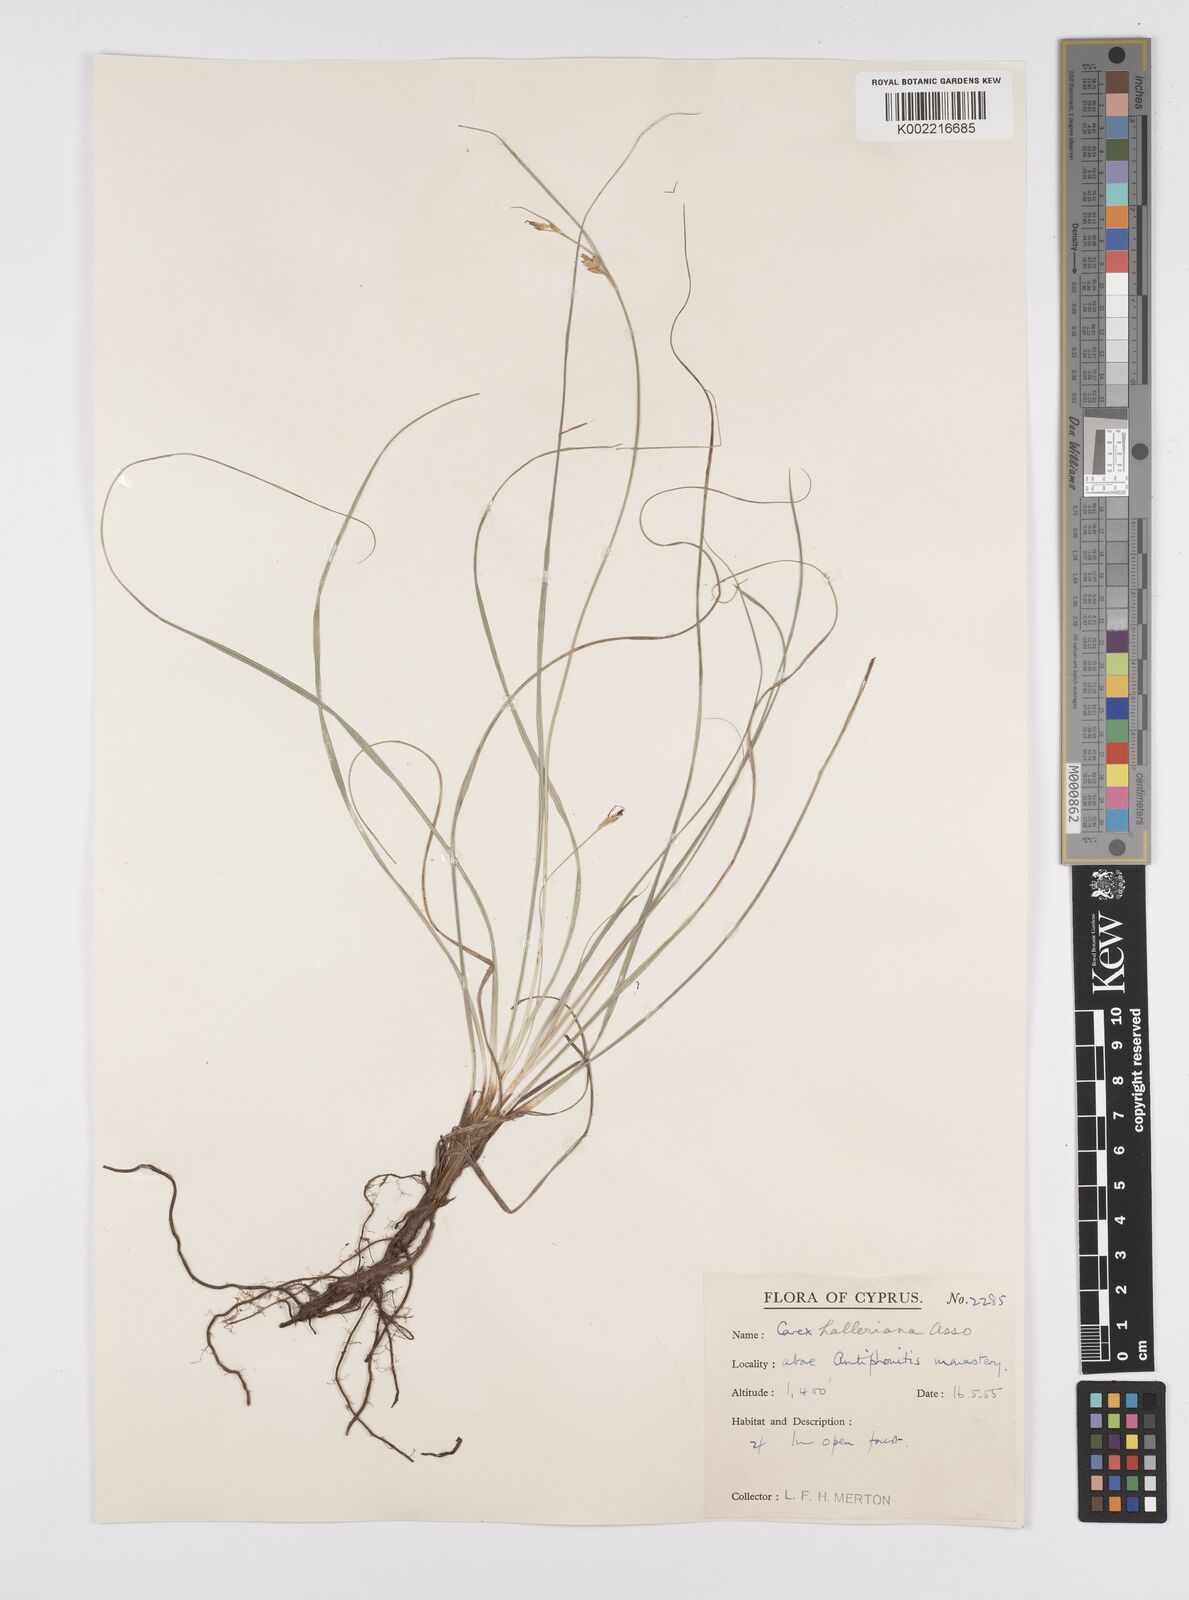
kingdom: Plantae
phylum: Tracheophyta
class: Liliopsida
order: Poales
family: Cyperaceae
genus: Carex
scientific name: Carex halleriana
